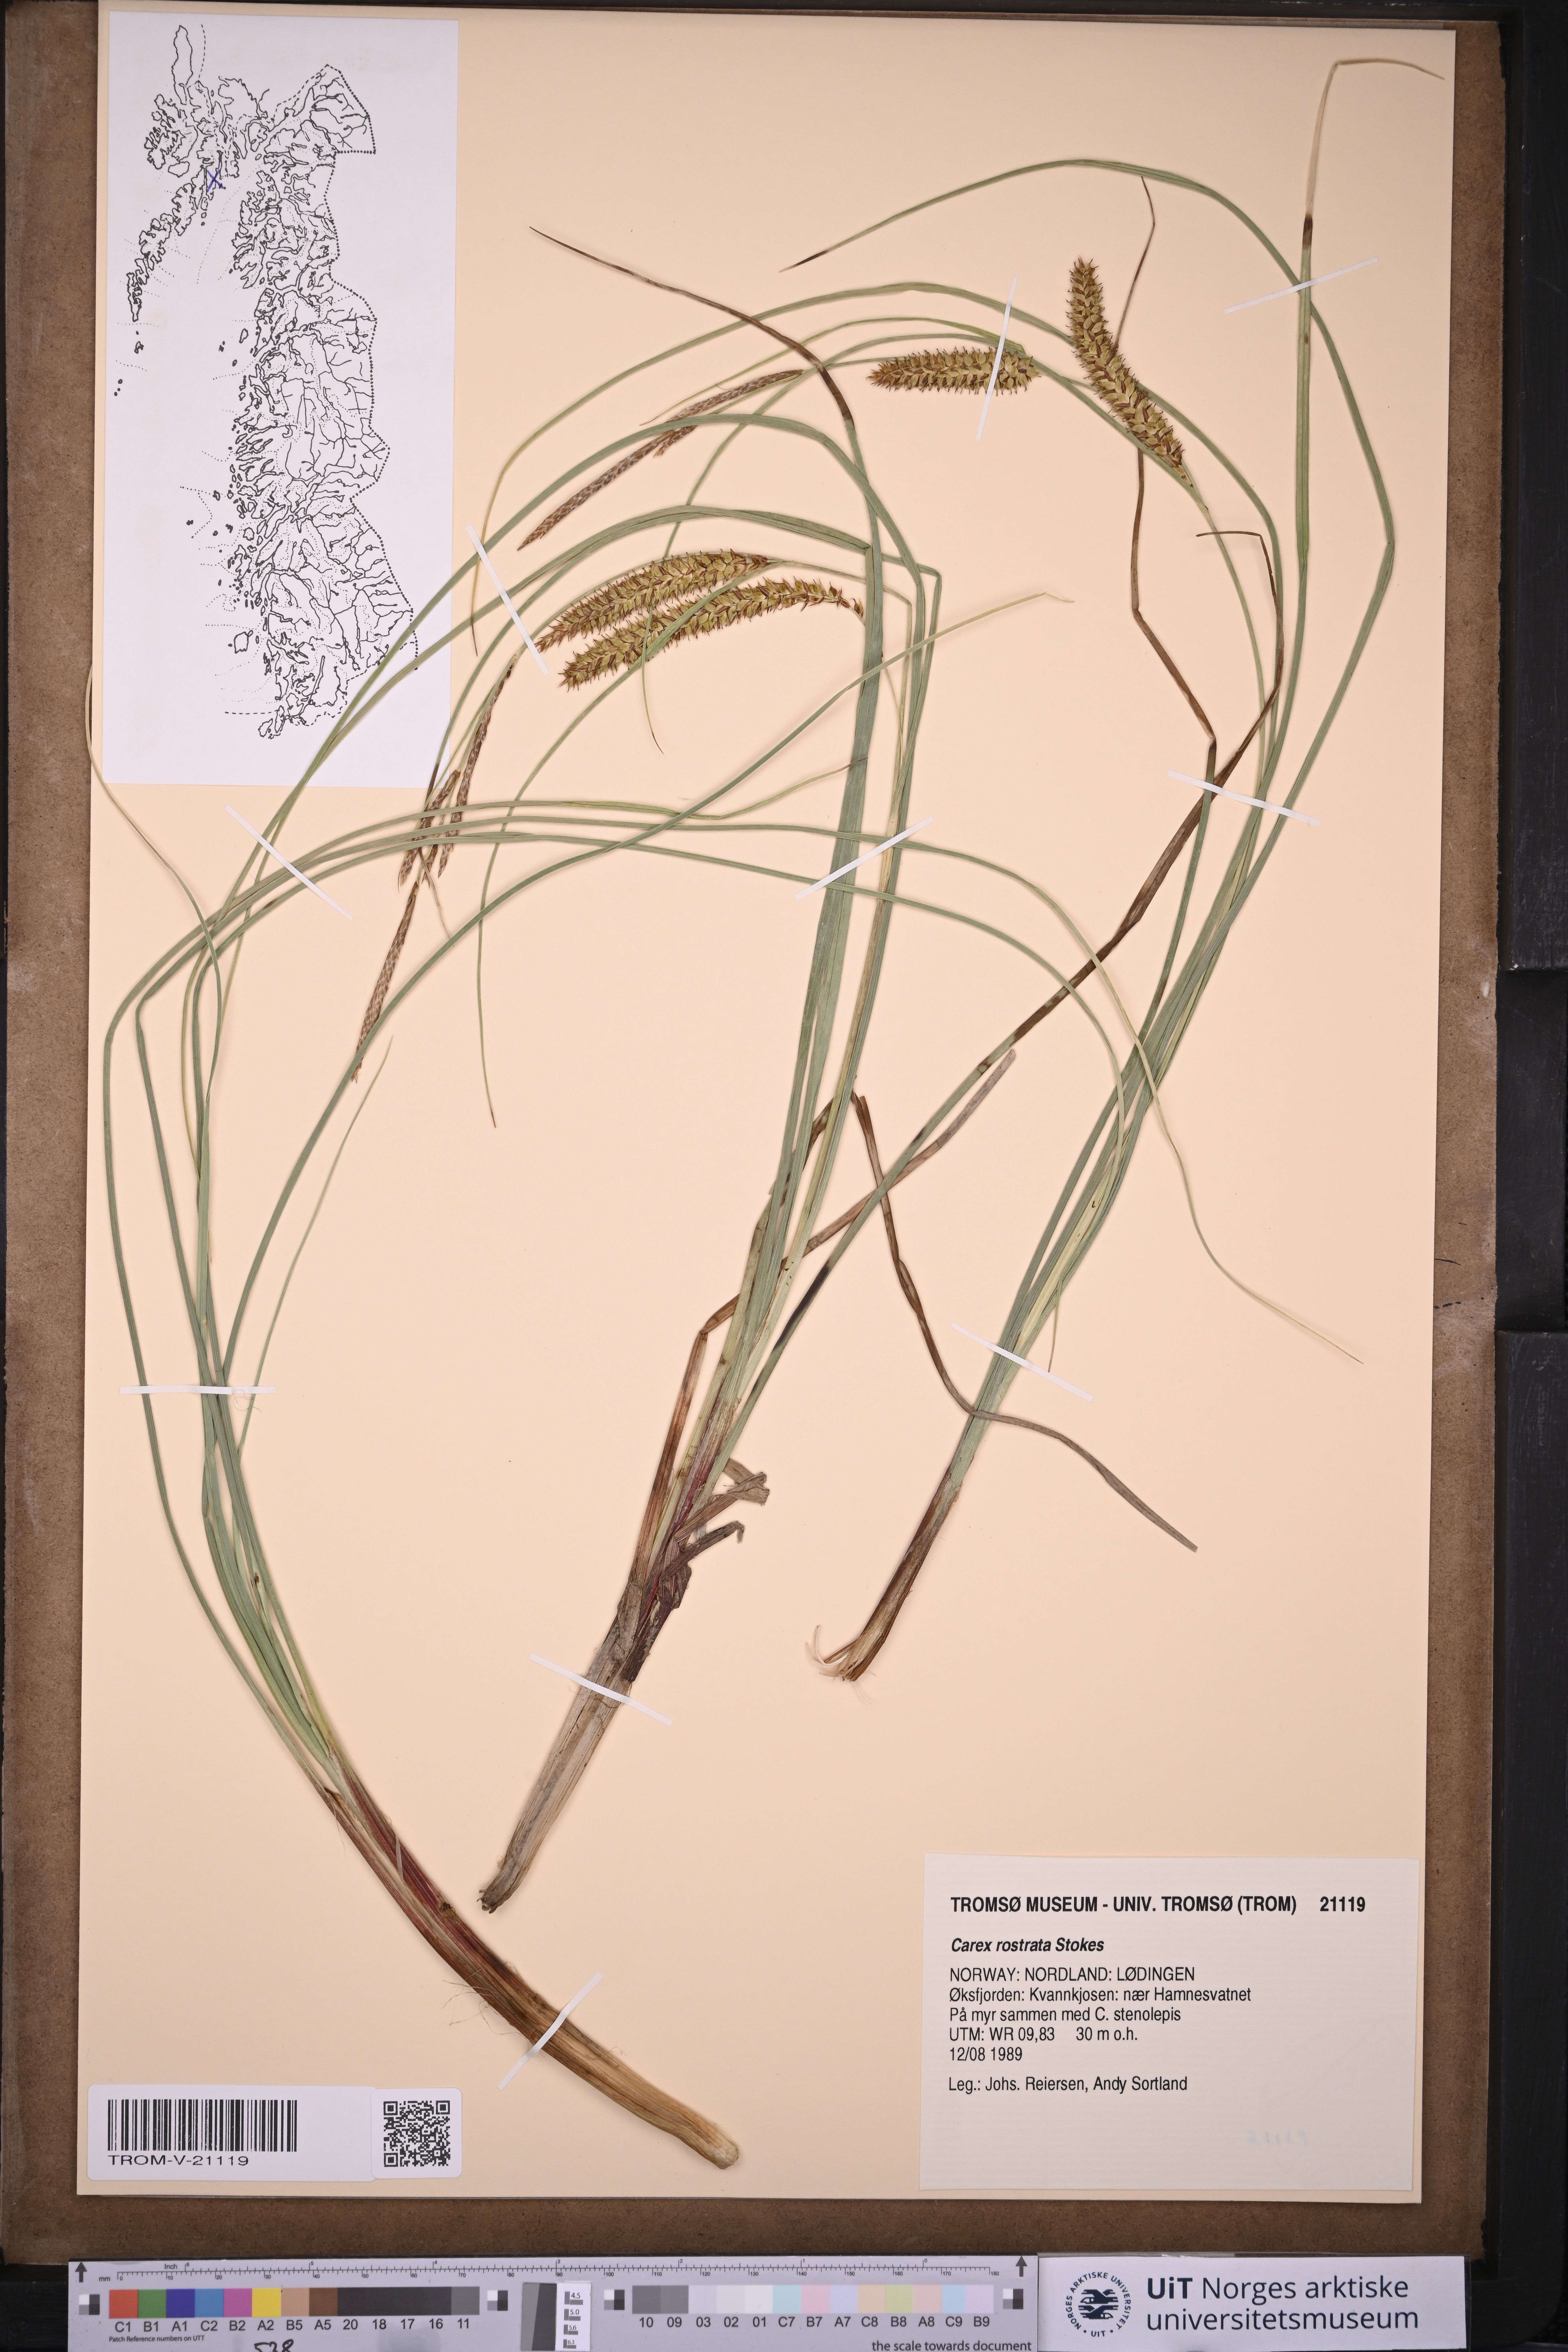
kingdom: Plantae
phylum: Tracheophyta
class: Liliopsida
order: Poales
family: Cyperaceae
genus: Carex
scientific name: Carex rostrata
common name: Bottle sedge
